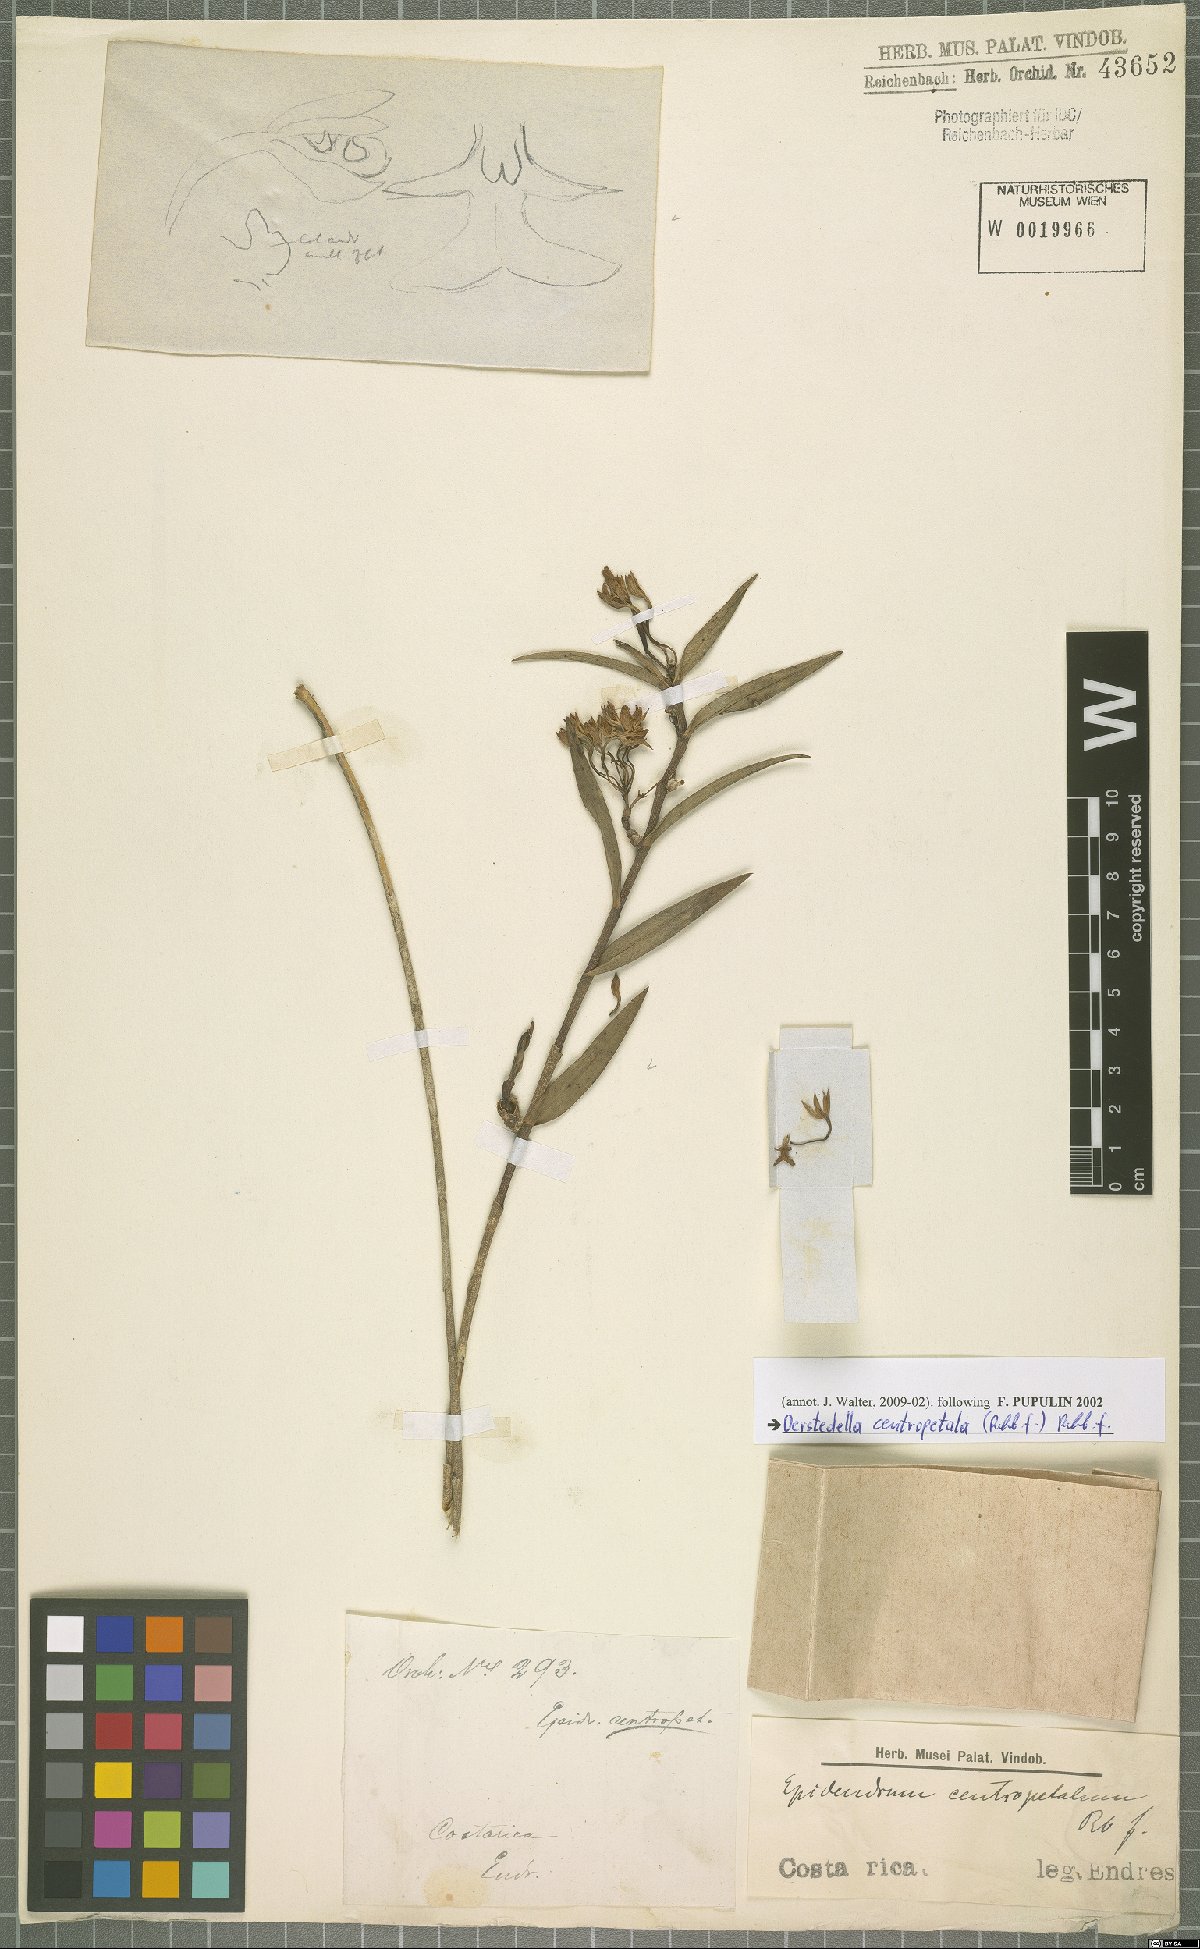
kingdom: Plantae
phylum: Tracheophyta
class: Liliopsida
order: Asparagales
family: Orchidaceae
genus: Epidendrum
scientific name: Epidendrum centropetalum
